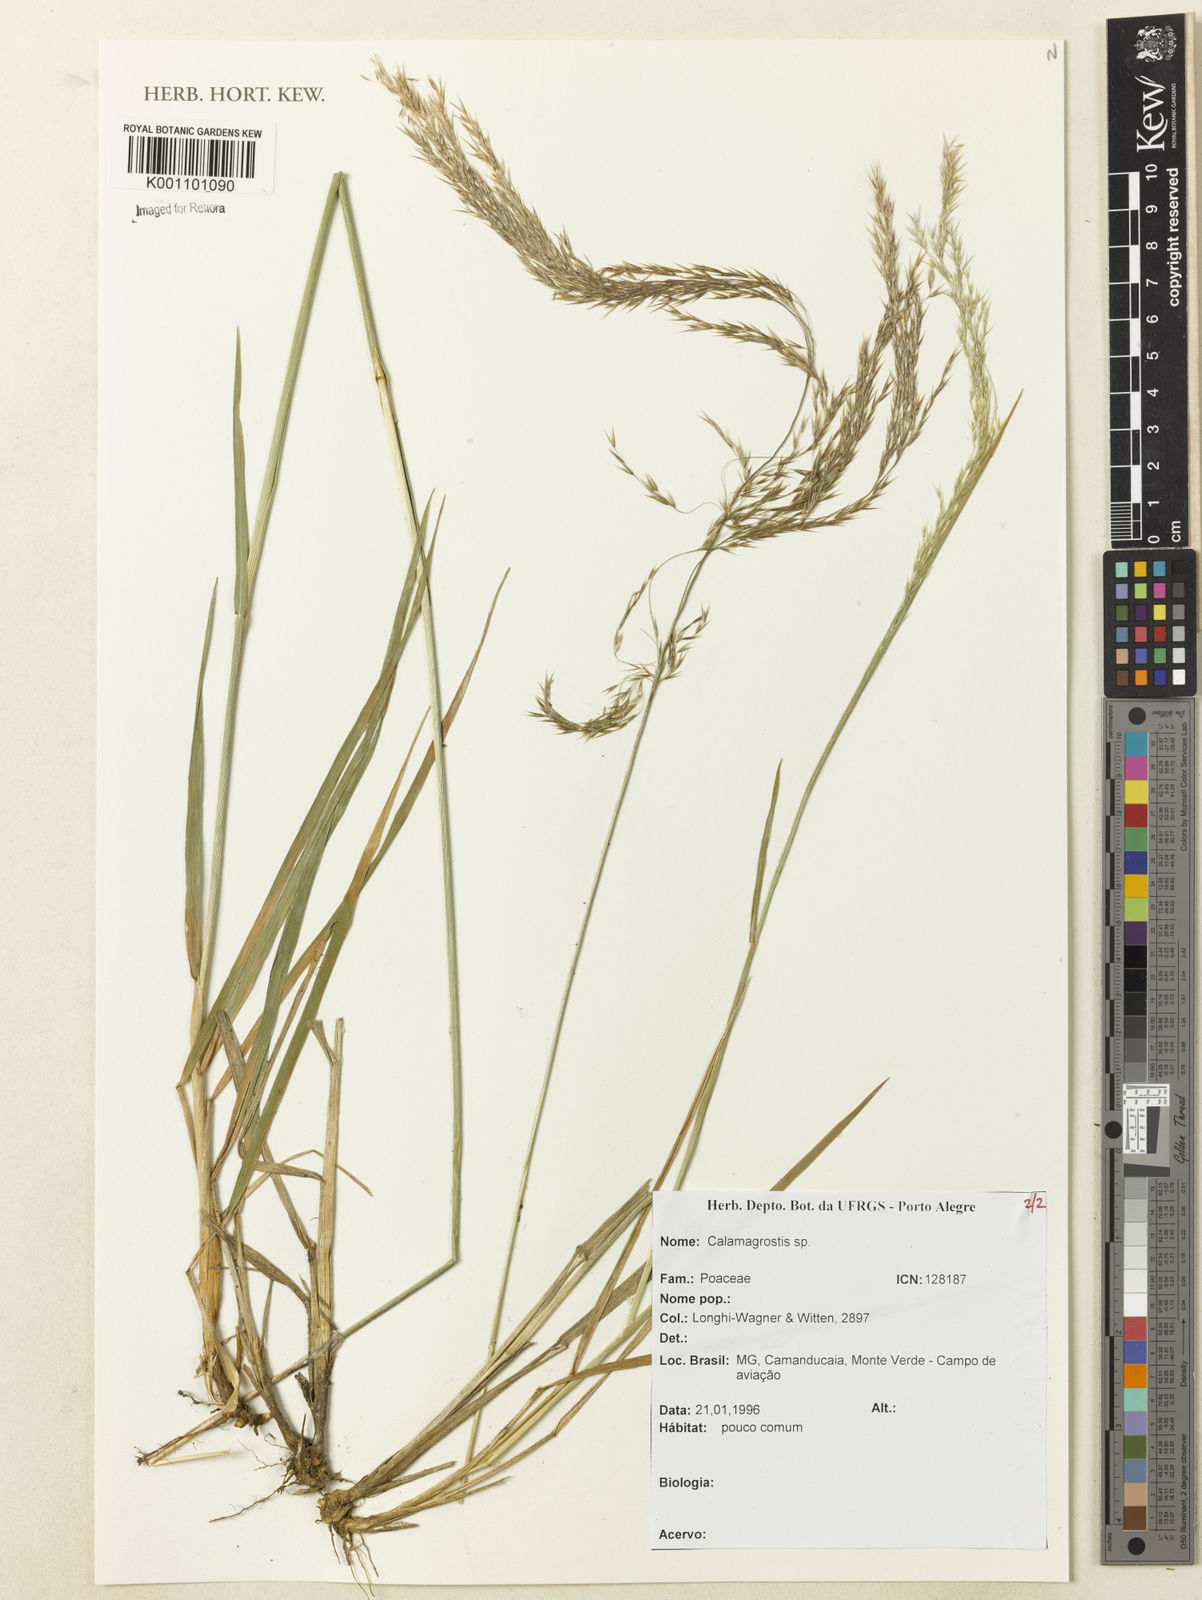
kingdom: Plantae
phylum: Tracheophyta
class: Liliopsida
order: Poales
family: Poaceae
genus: Calamagrostis
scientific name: Calamagrostis
